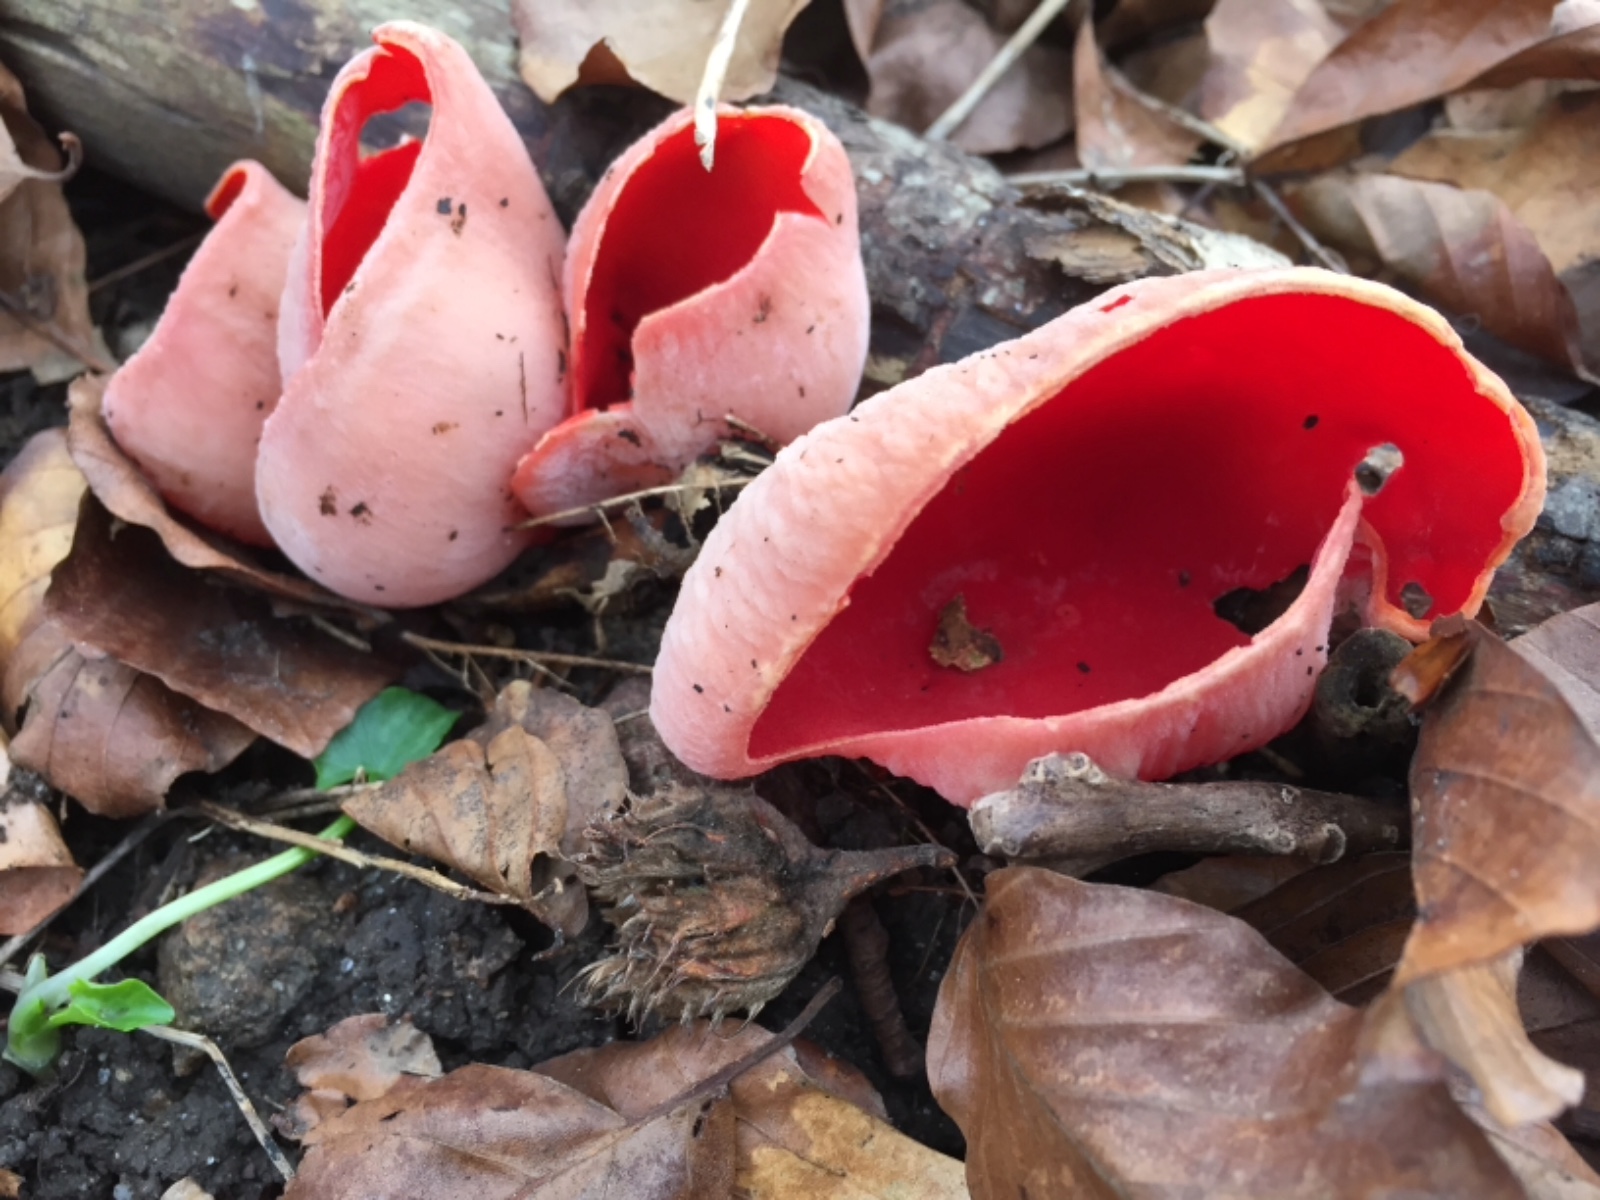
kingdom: Fungi
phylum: Ascomycota
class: Pezizomycetes
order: Pezizales
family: Sarcoscyphaceae
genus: Sarcoscypha
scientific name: Sarcoscypha austriaca
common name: krølhåret pragtbæger
